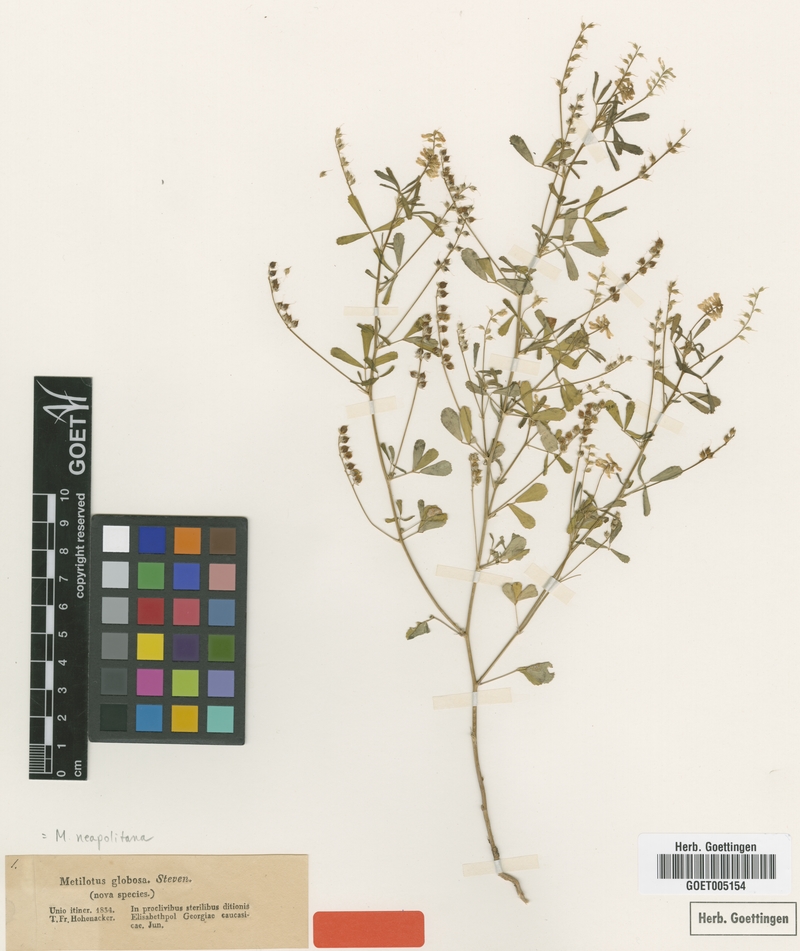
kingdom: Plantae
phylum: Tracheophyta
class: Magnoliopsida
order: Fabales
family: Fabaceae
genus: Melilotus
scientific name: Melilotus neapolitanus
